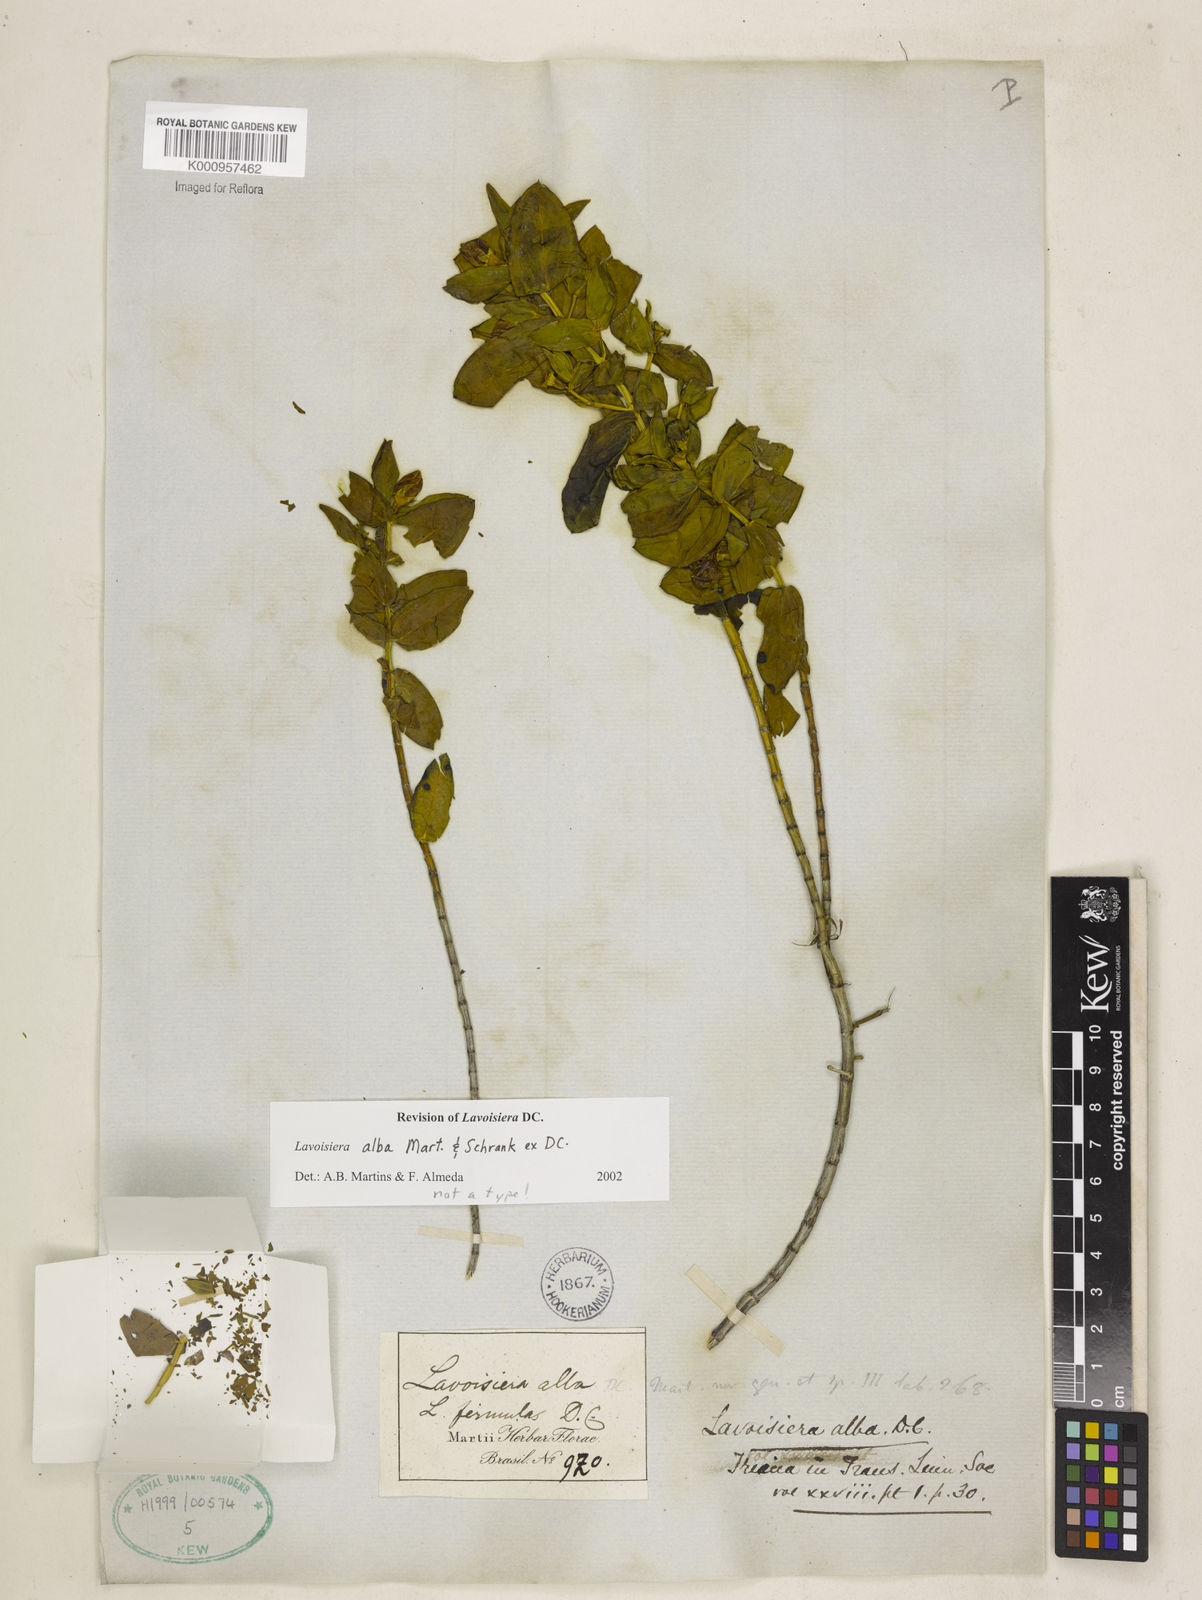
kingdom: Plantae
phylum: Tracheophyta
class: Magnoliopsida
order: Myrtales
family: Melastomataceae
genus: Microlicia
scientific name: Microlicia alba
